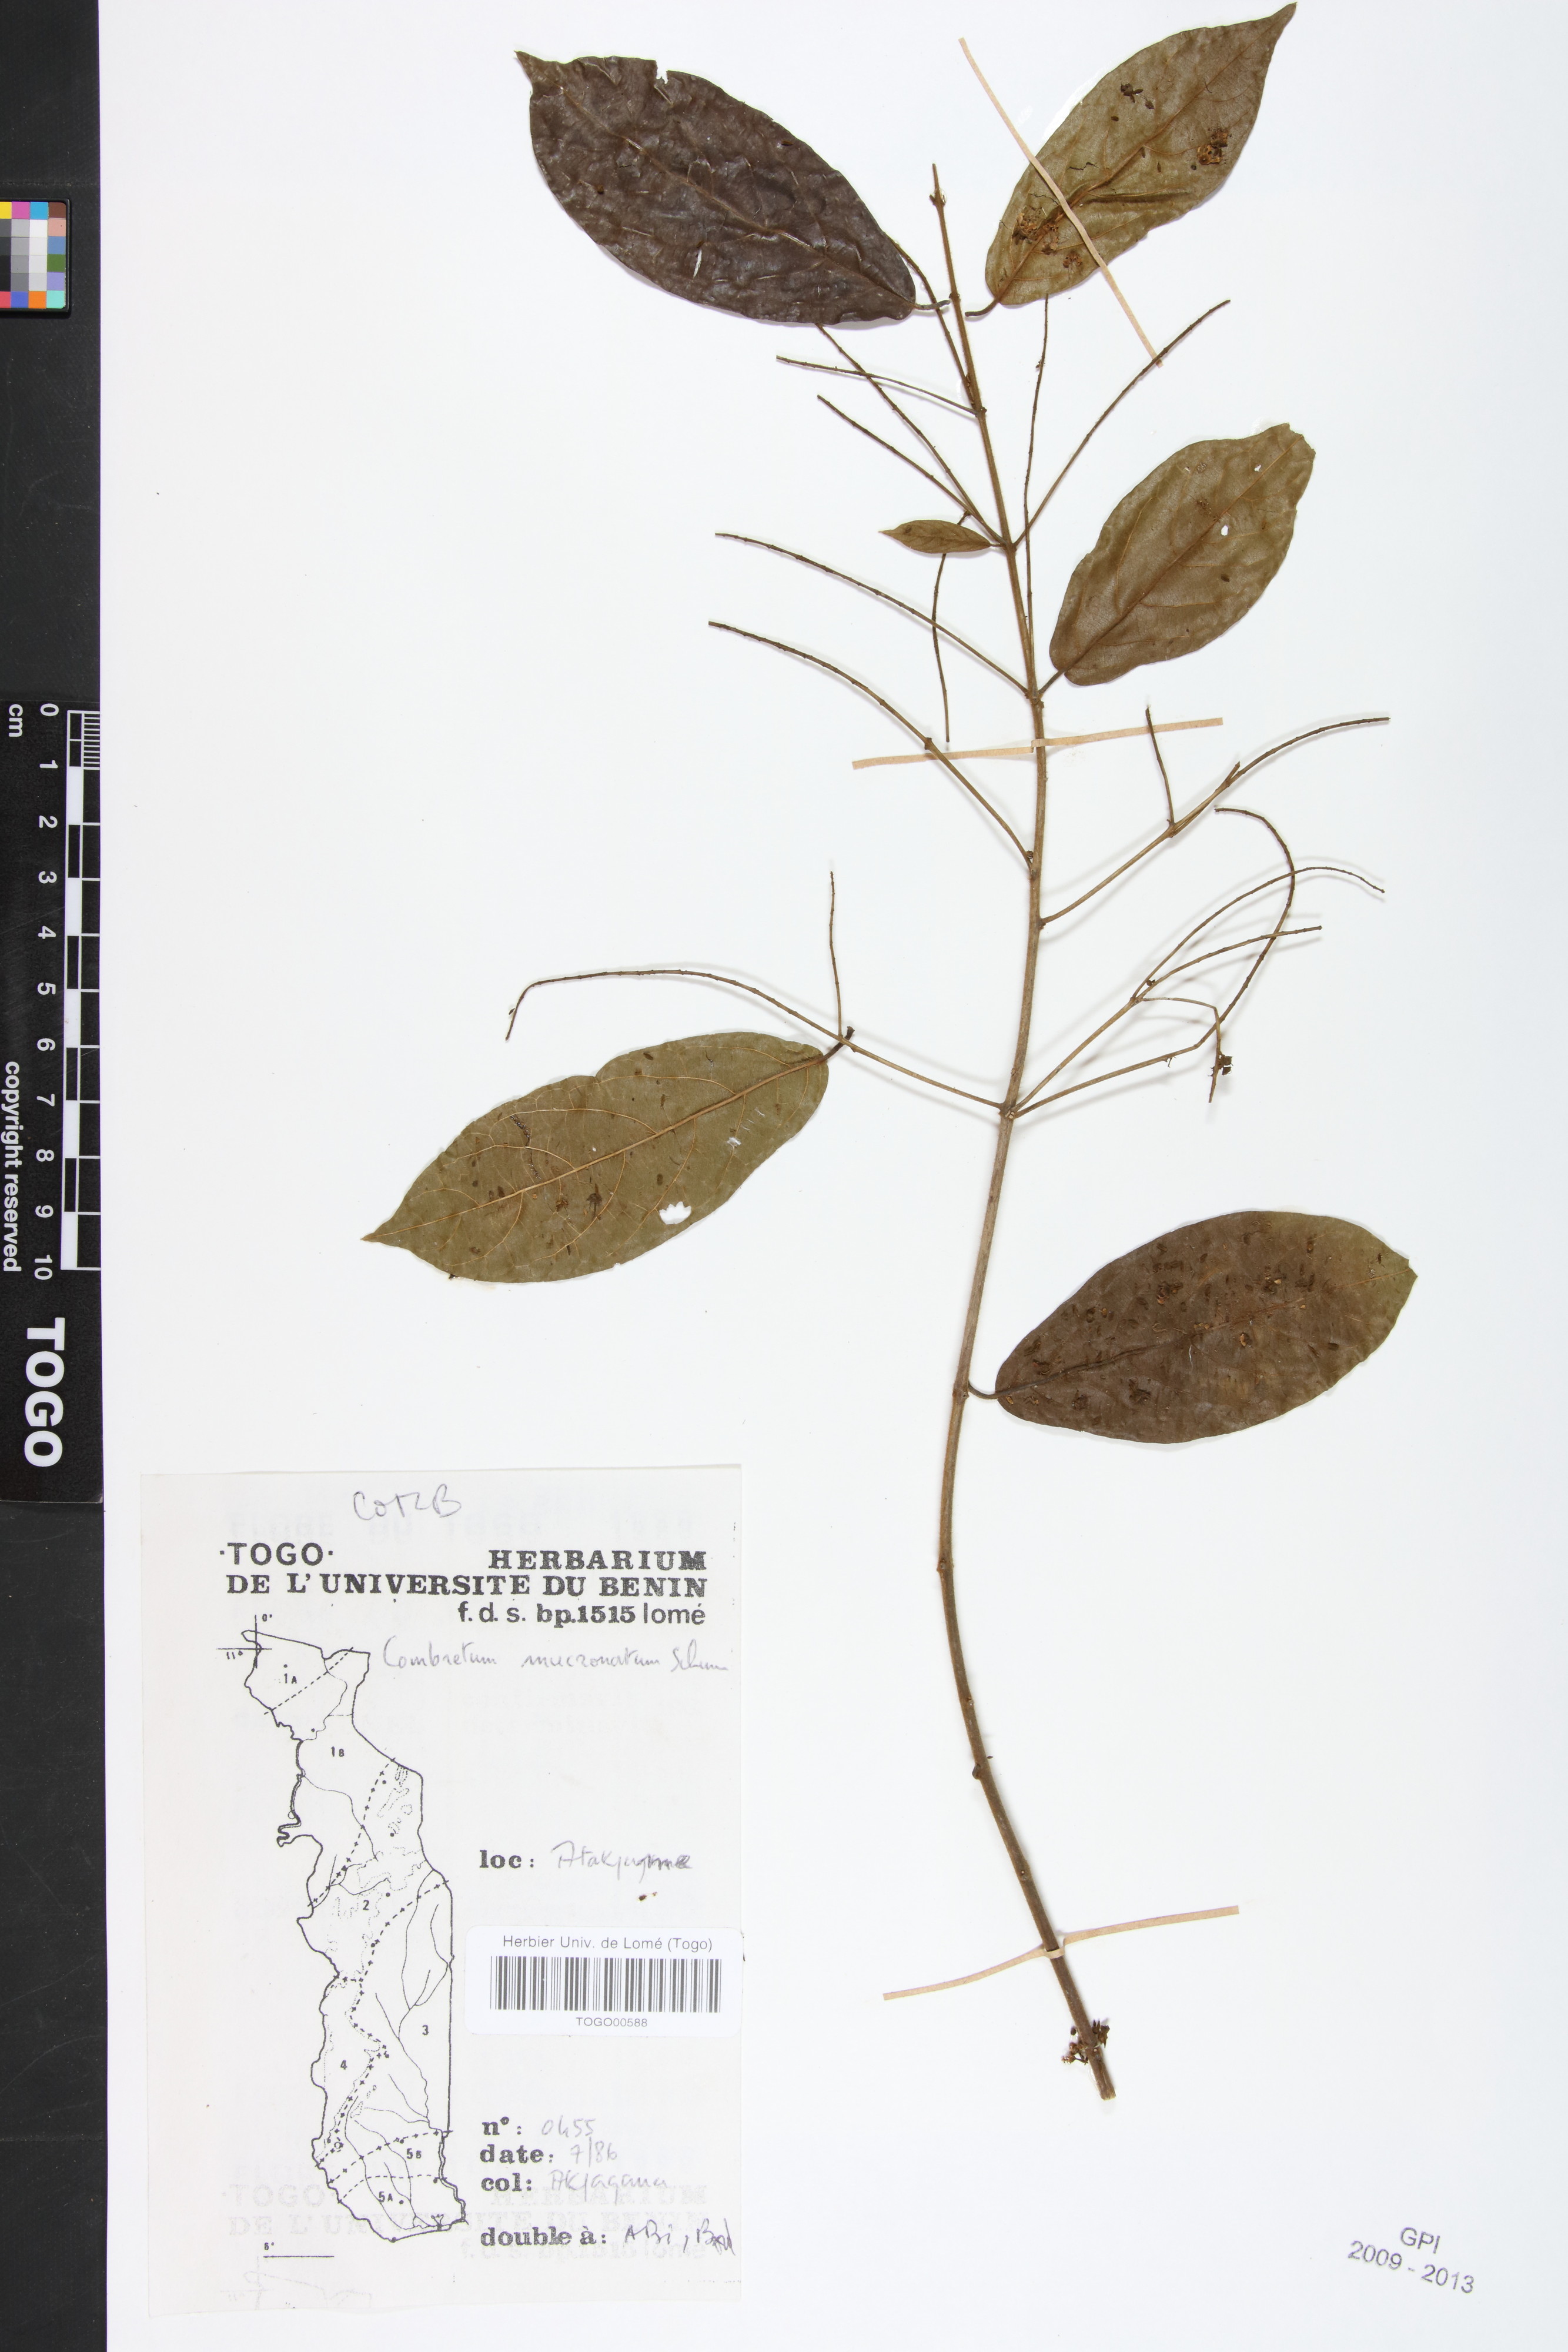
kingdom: Plantae
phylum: Tracheophyta
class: Magnoliopsida
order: Myrtales
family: Combretaceae
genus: Combretum
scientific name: Combretum mucronatum
